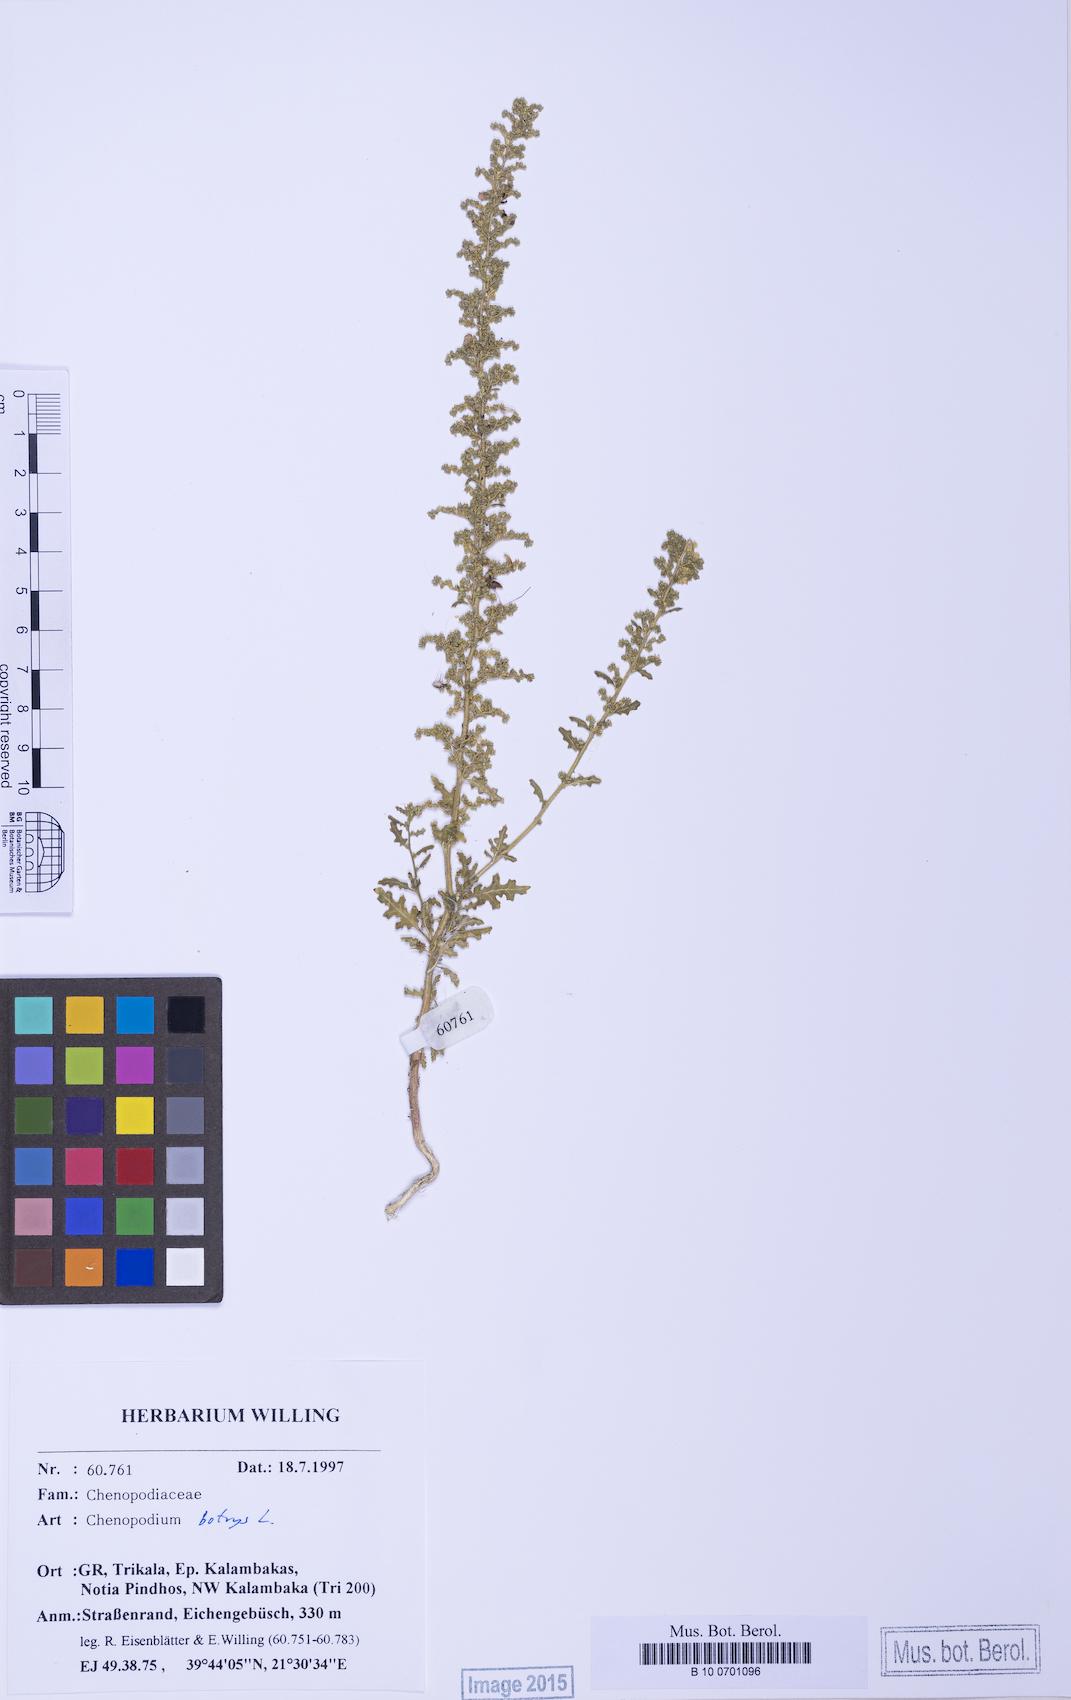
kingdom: Plantae
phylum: Tracheophyta
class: Magnoliopsida
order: Caryophyllales
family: Amaranthaceae
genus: Dysphania
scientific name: Dysphania botrys
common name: Feather-geranium
